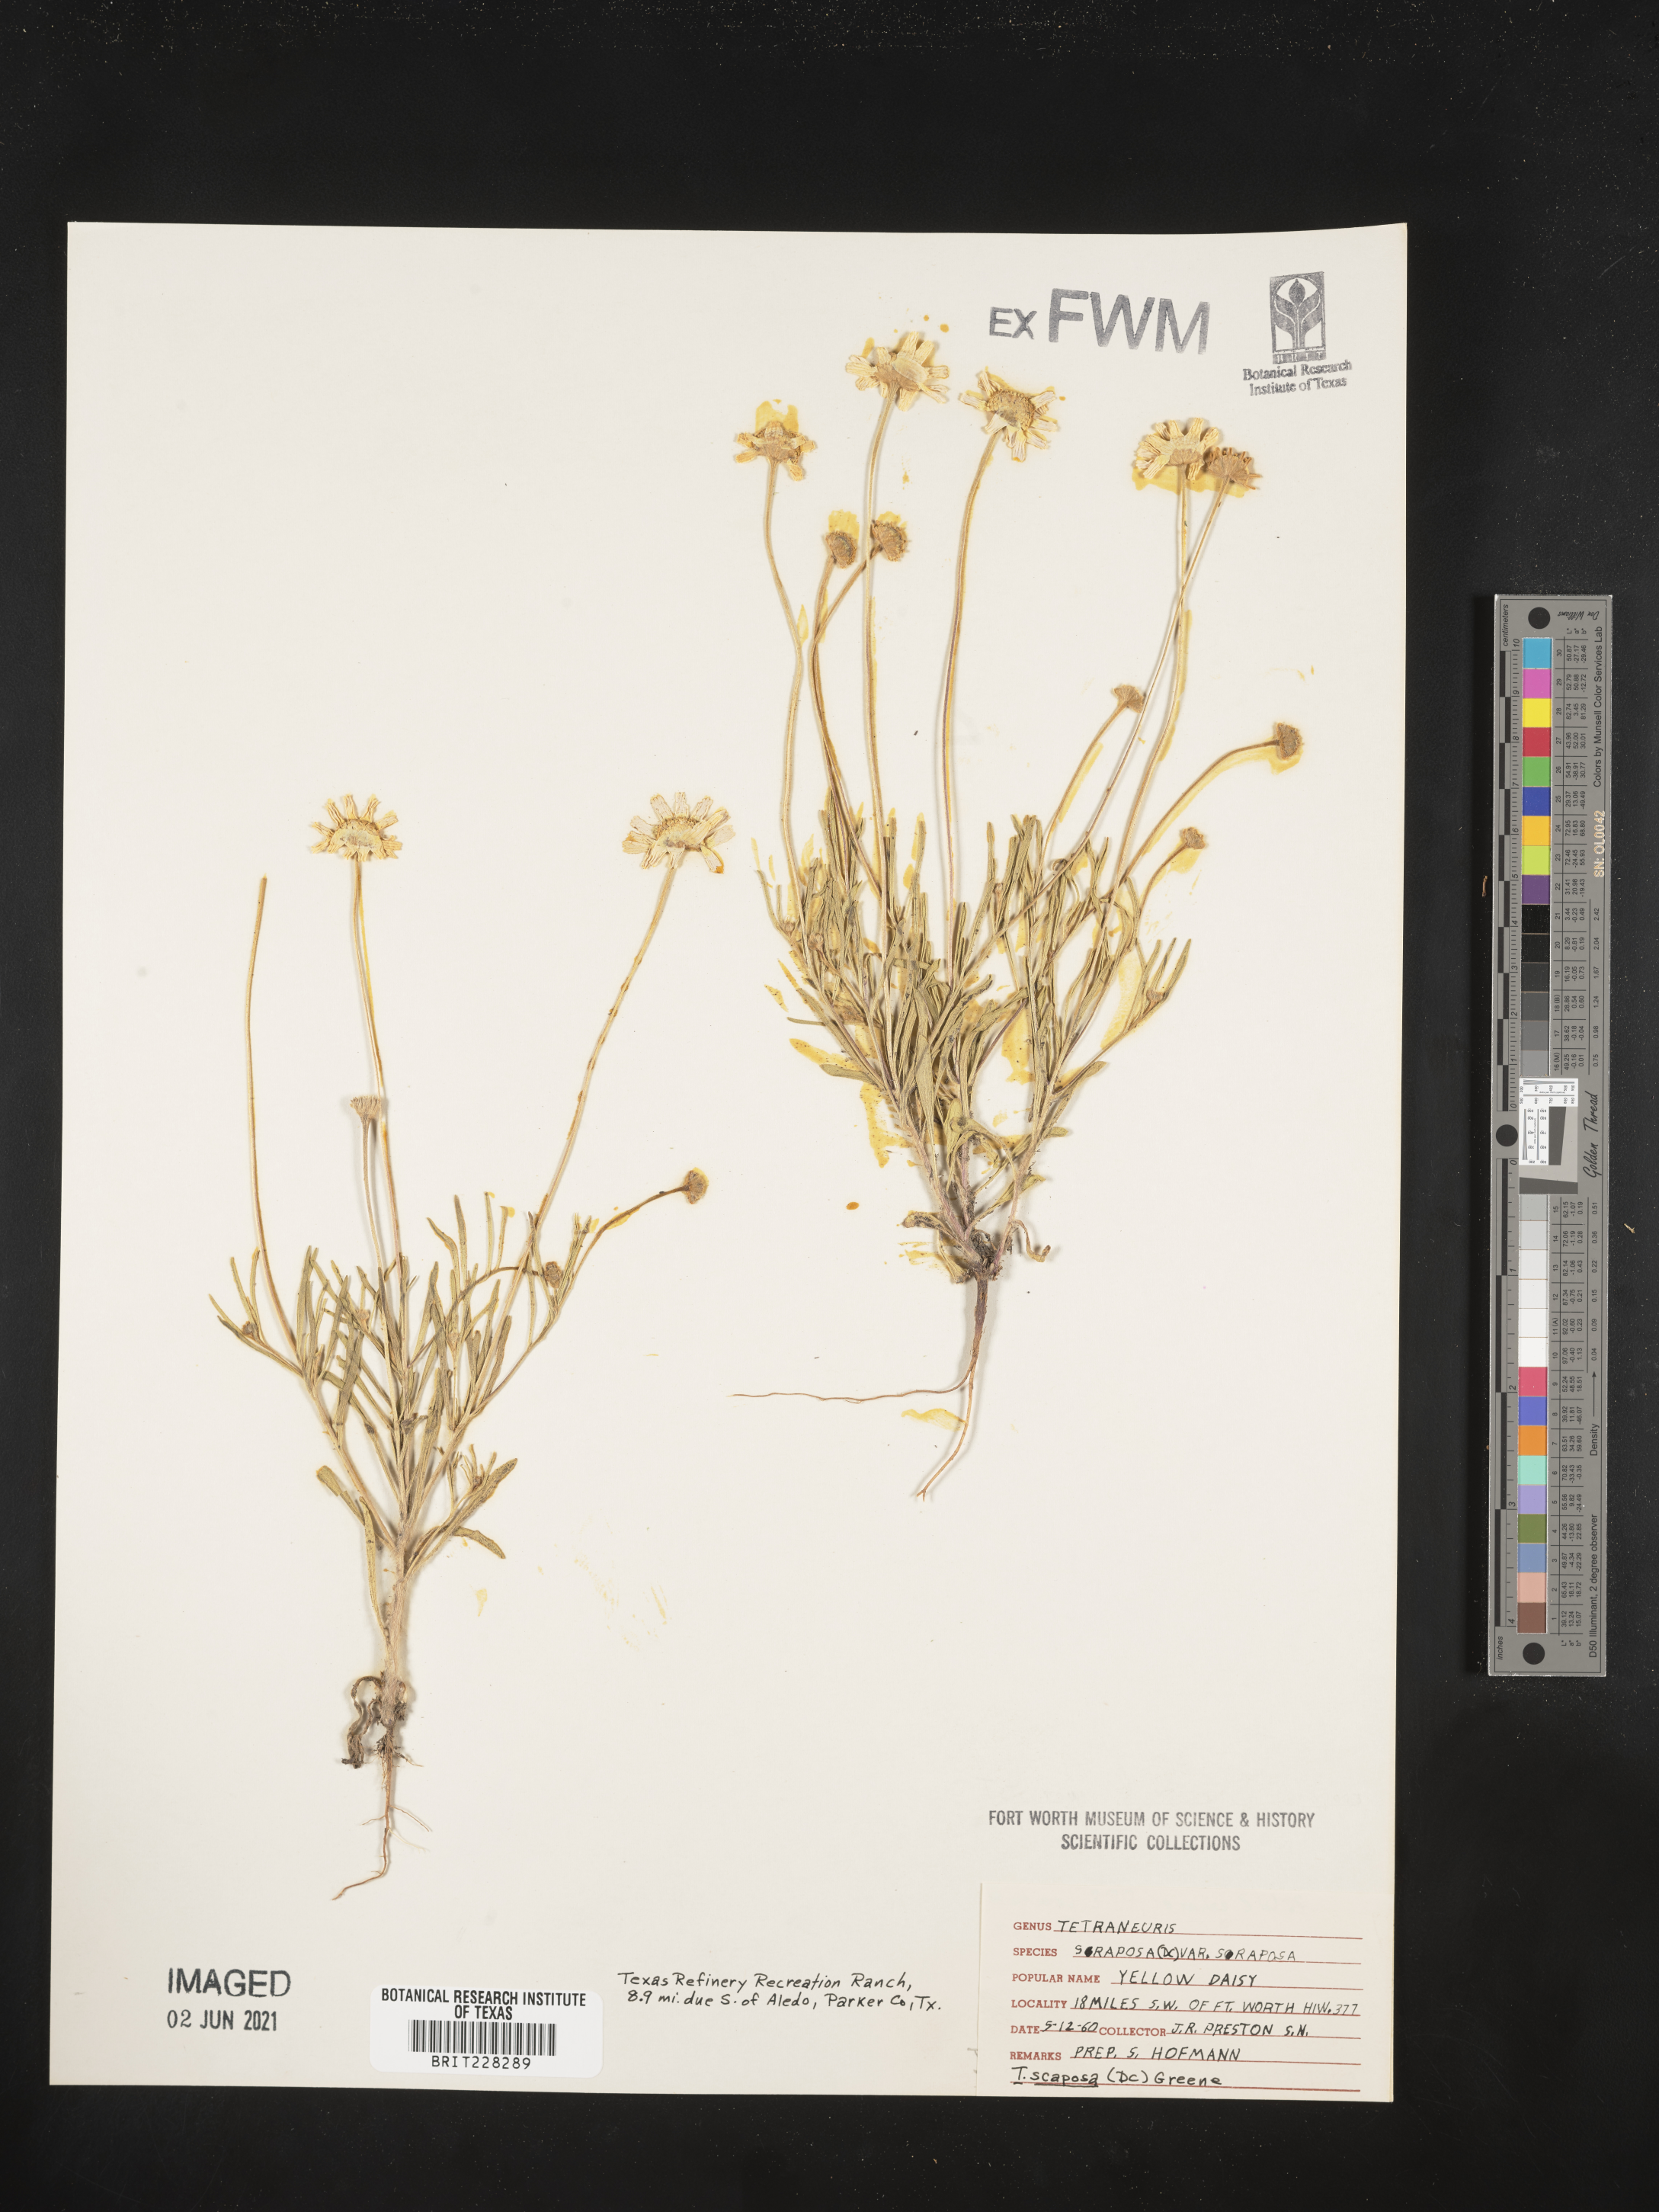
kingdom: Plantae
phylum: Tracheophyta
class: Magnoliopsida
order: Asterales
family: Asteraceae
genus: Tetraneuris
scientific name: Tetraneuris scaposa
